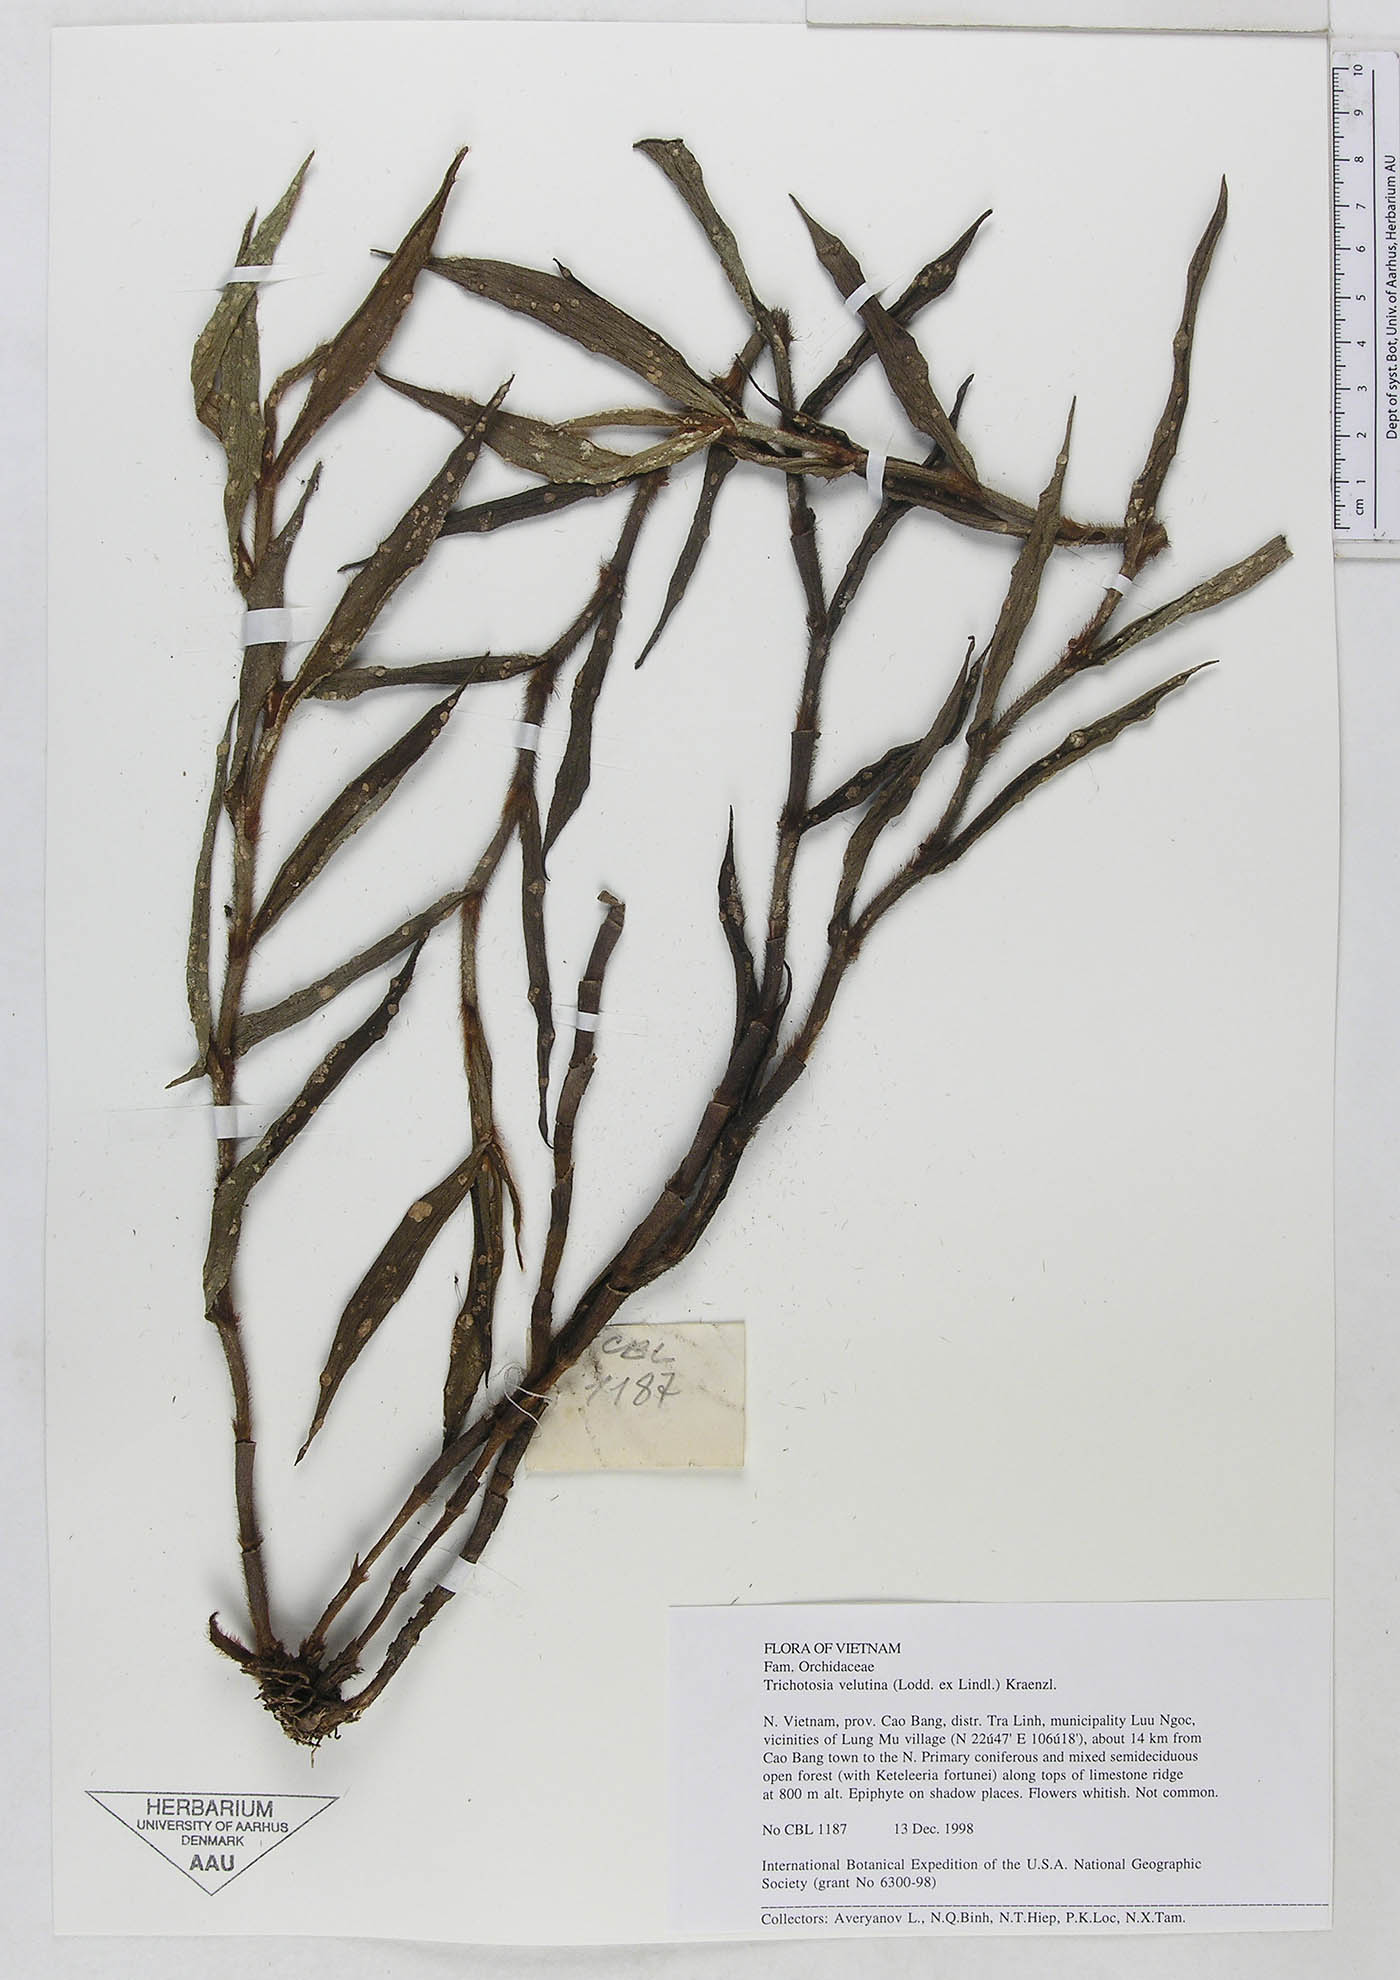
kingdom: Plantae
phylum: Tracheophyta
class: Liliopsida
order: Asparagales
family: Orchidaceae
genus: Trichotosia
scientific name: Trichotosia velutina
